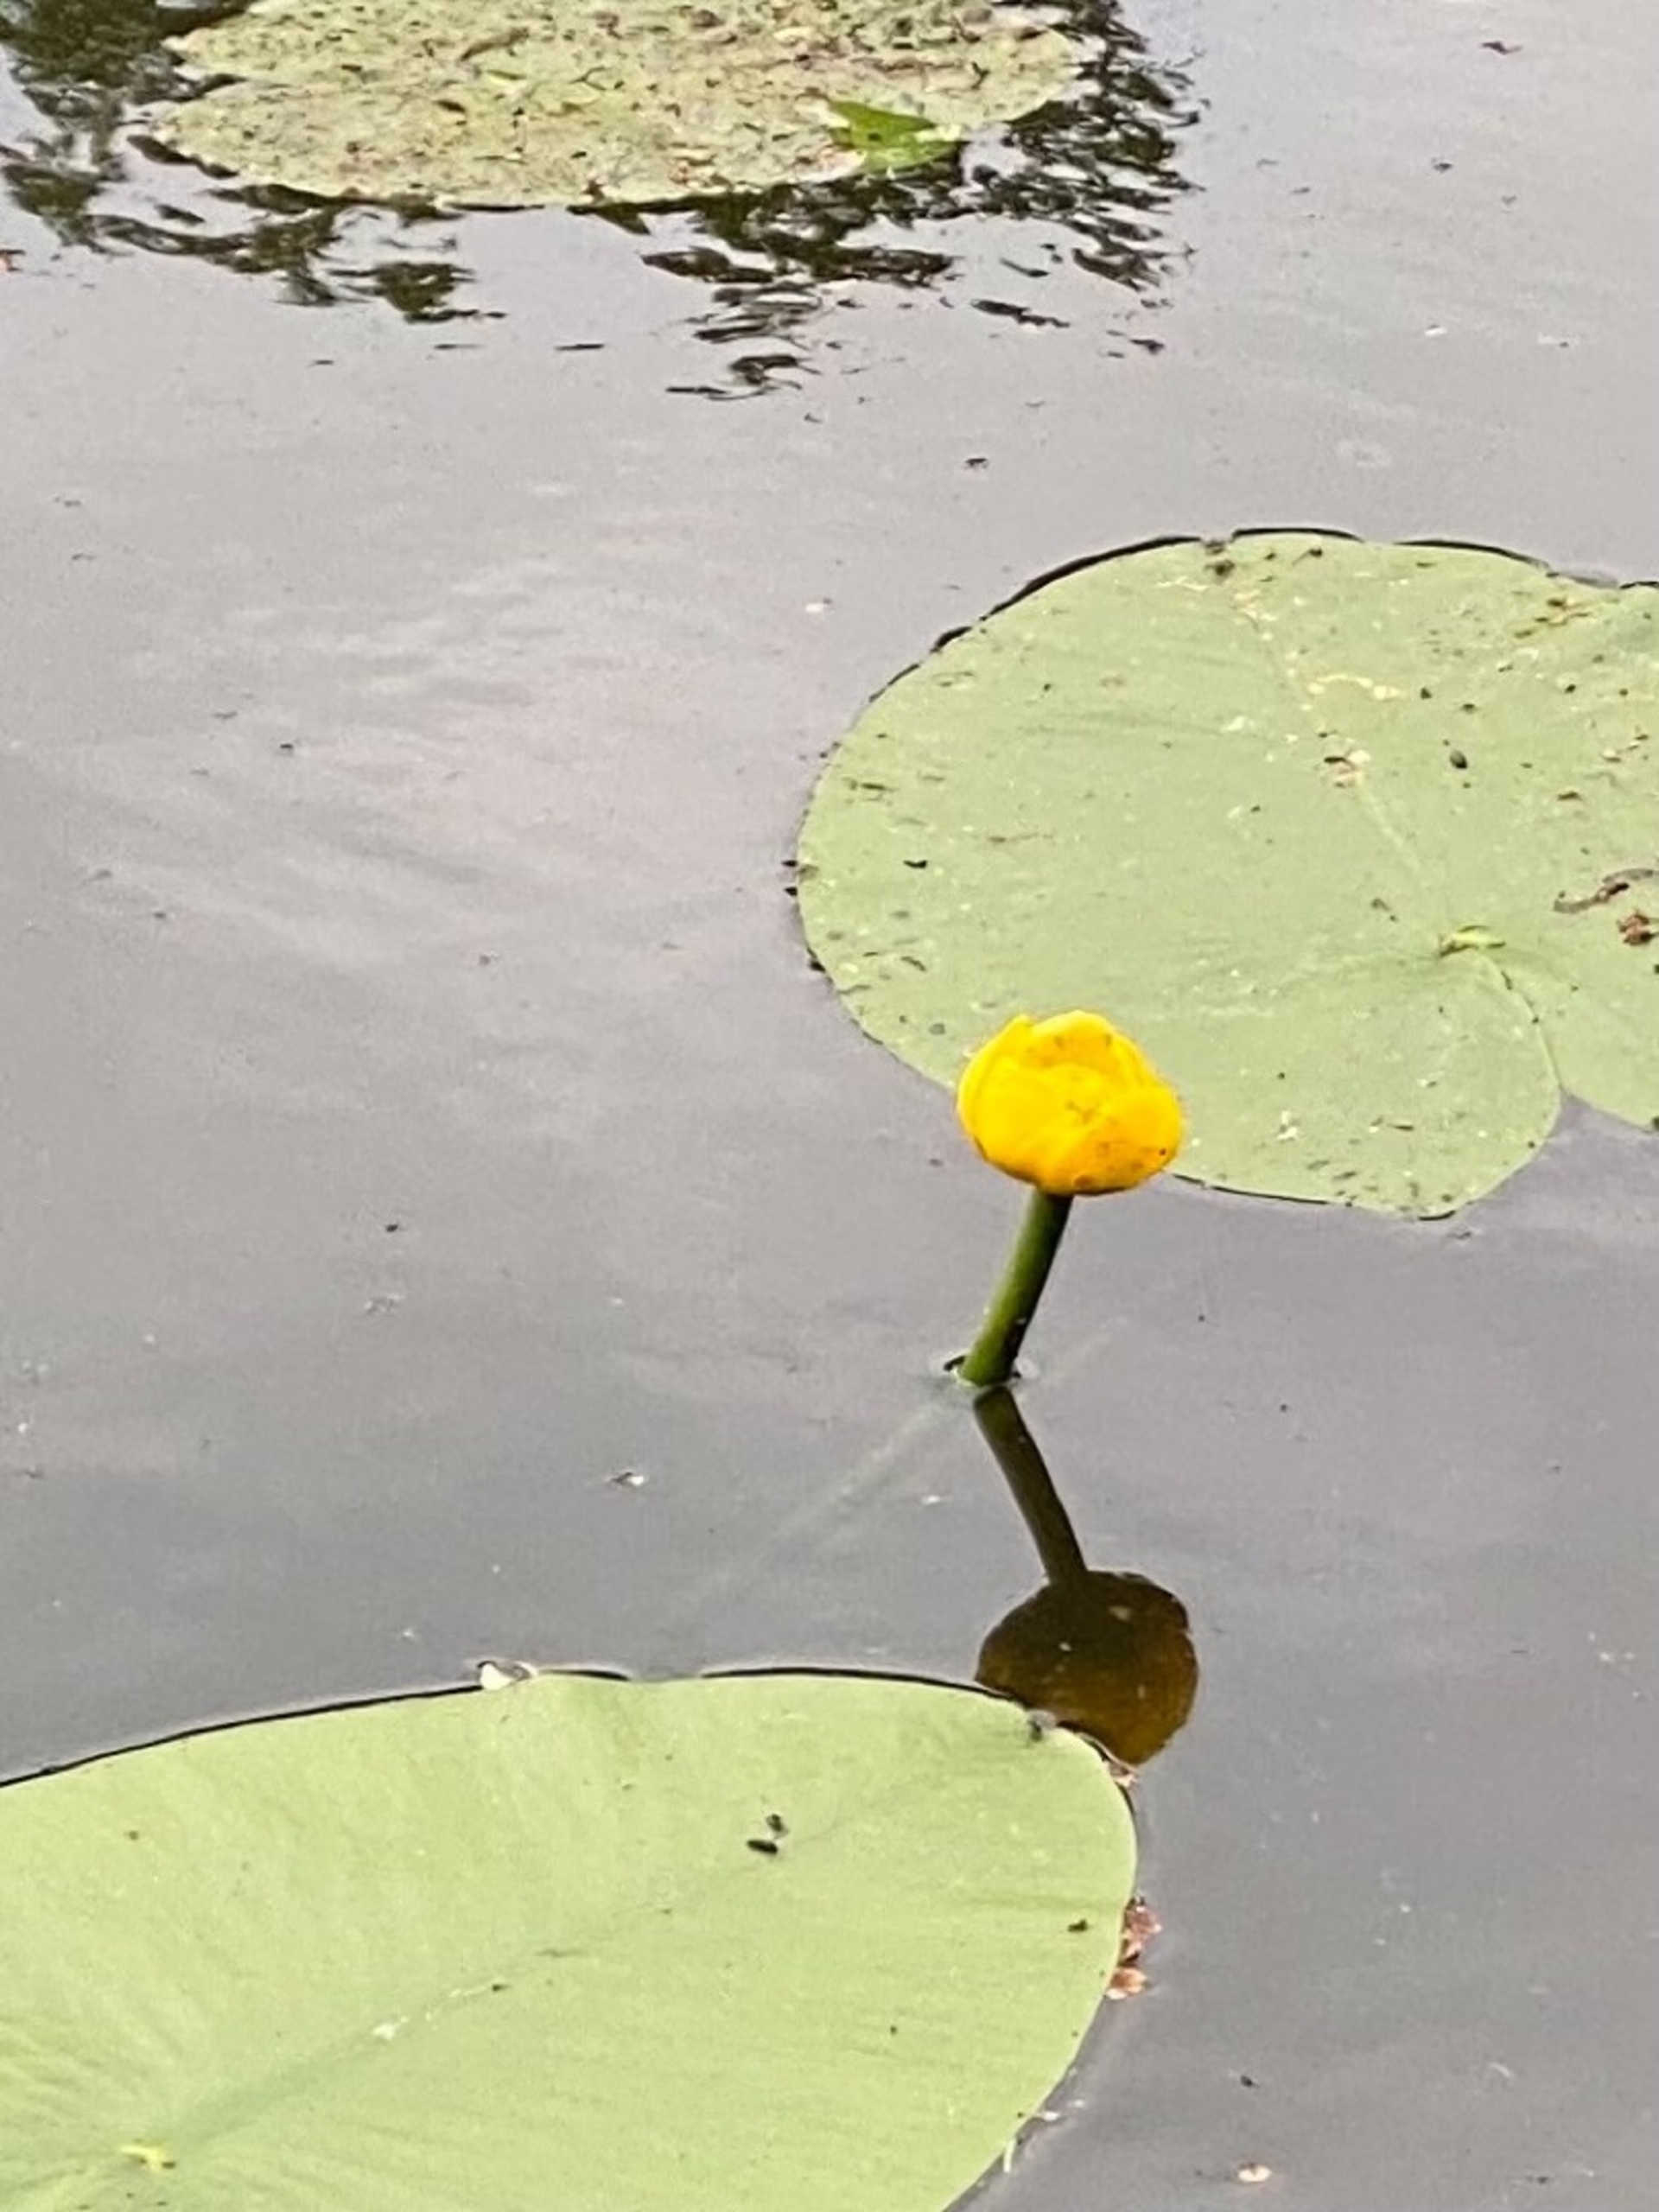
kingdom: Plantae
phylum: Tracheophyta
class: Magnoliopsida
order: Nymphaeales
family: Nymphaeaceae
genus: Nuphar
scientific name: Nuphar lutea
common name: Gul åkande
